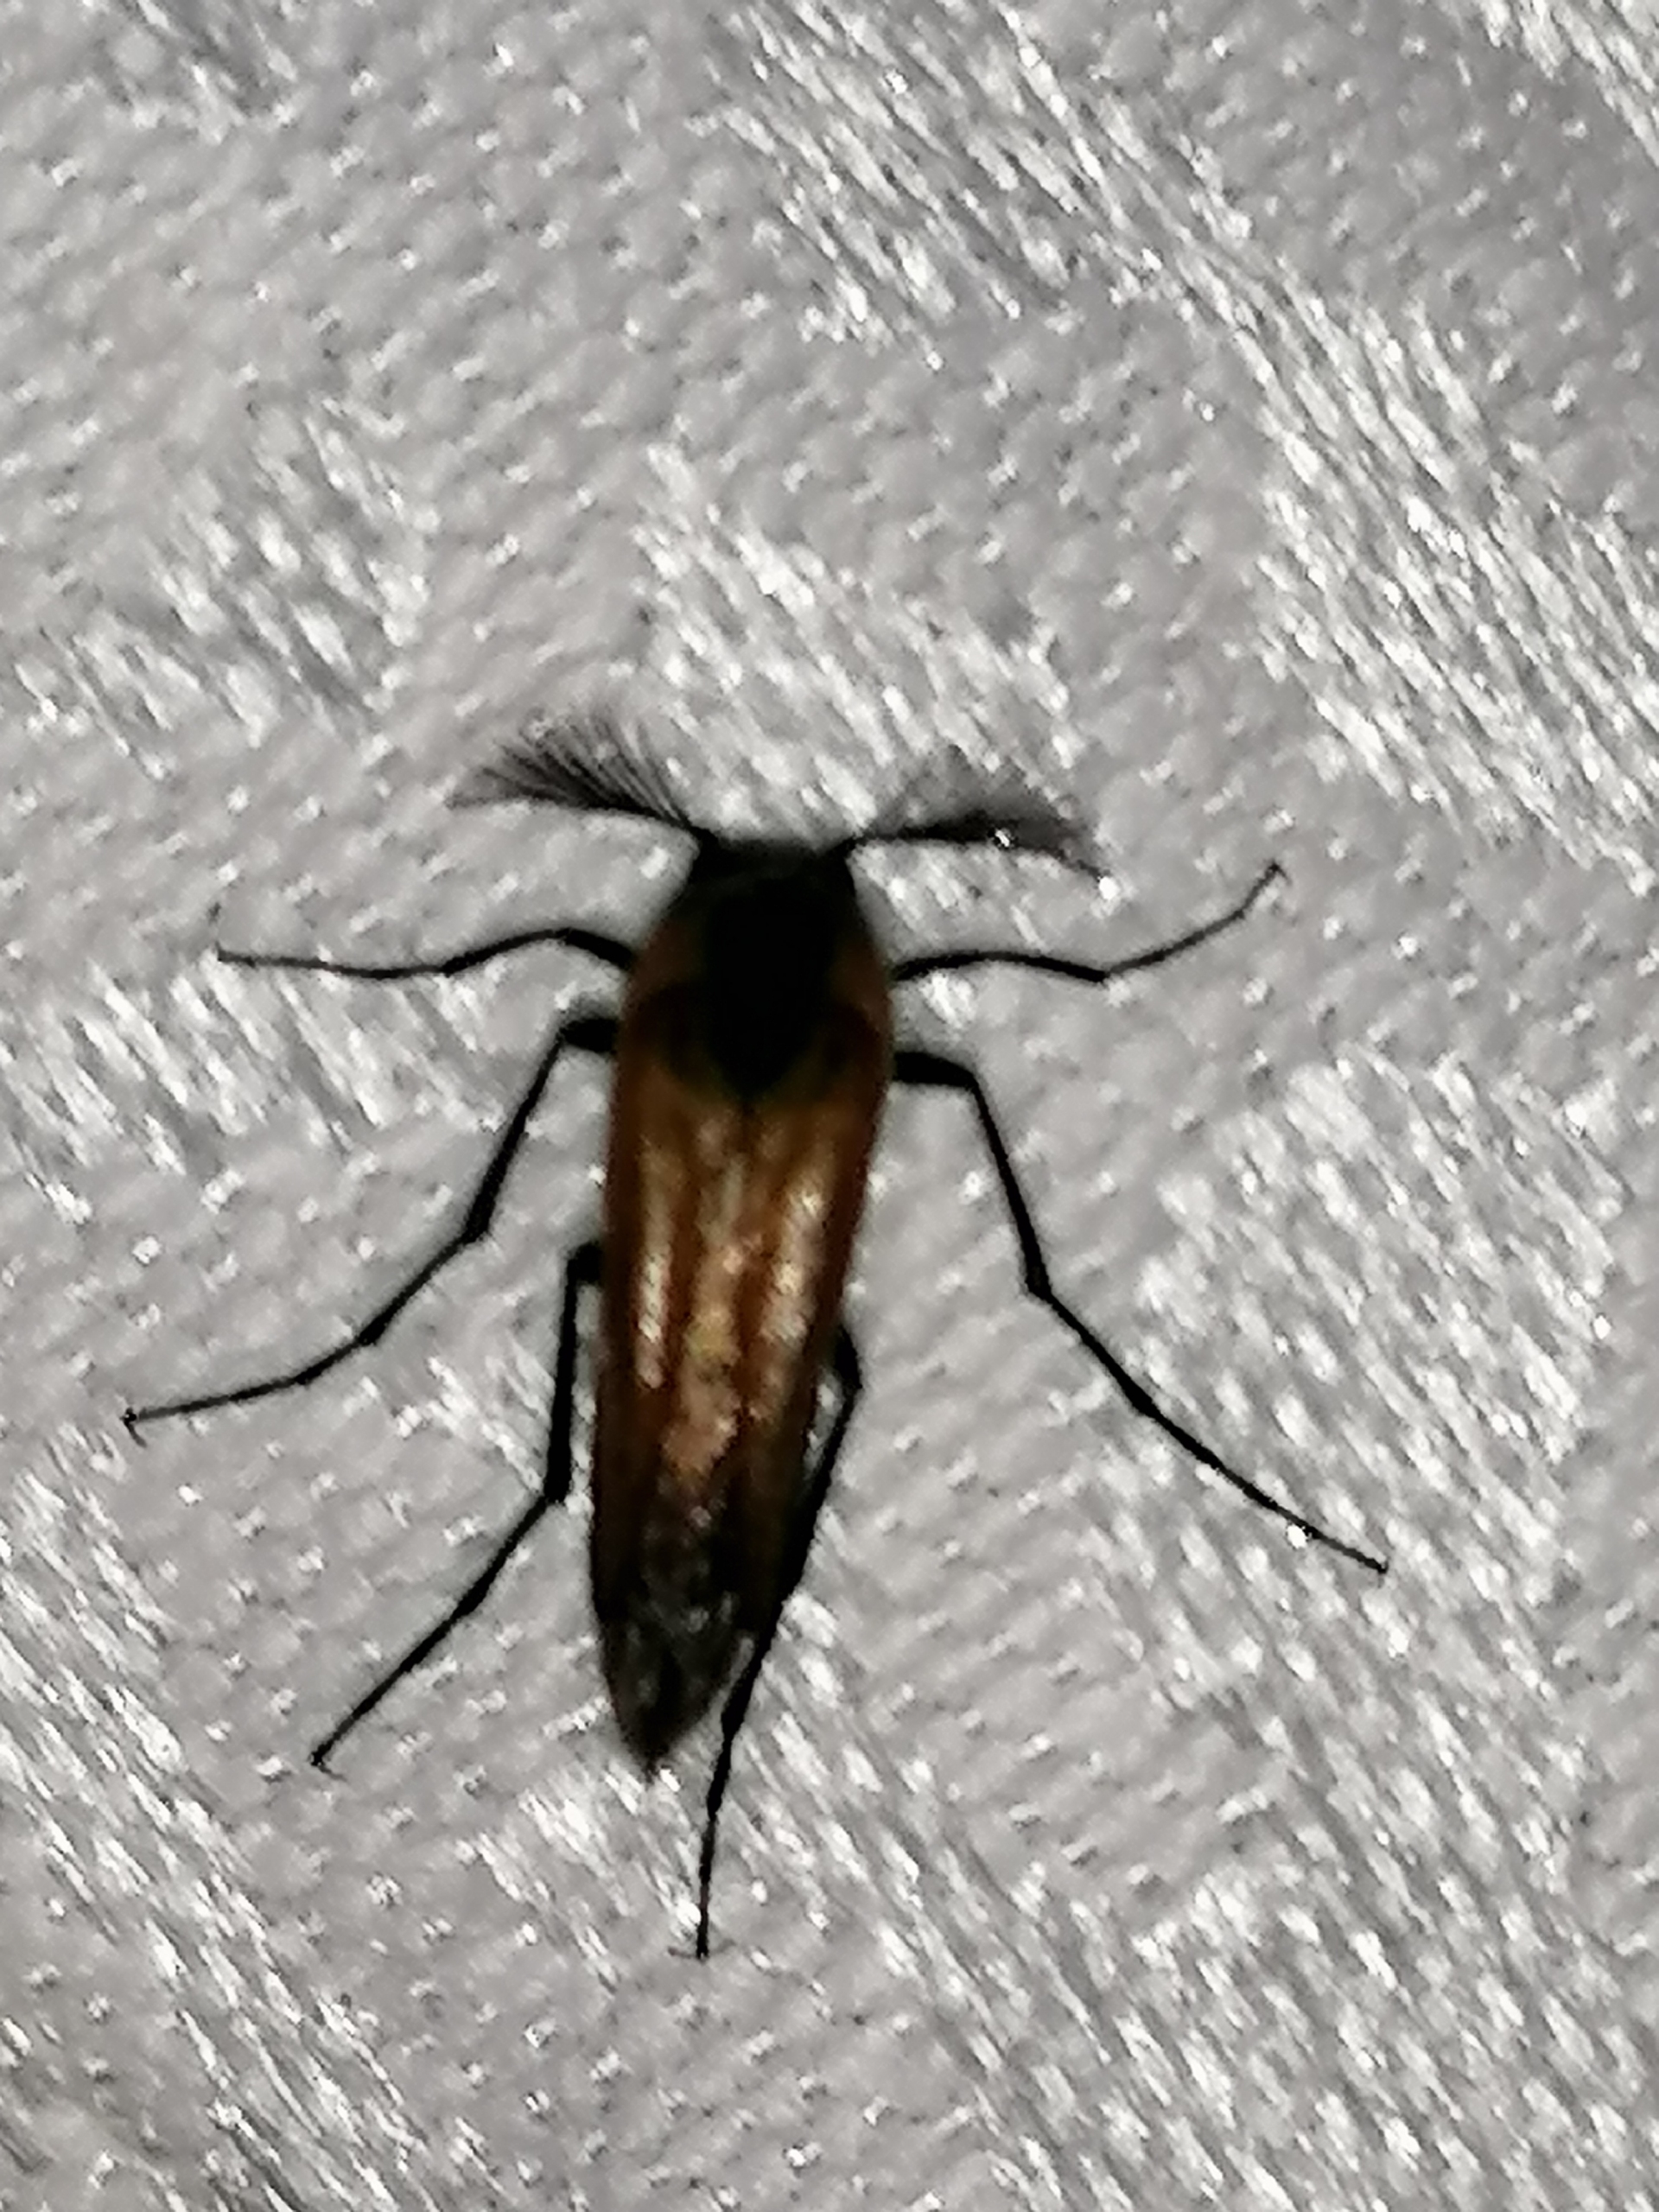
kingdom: Animalia
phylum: Arthropoda
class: Insecta
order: Coleoptera
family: Ripiphoridae
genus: Metoecus
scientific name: Metoecus paradoxus
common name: Hvepsesnyltebille
